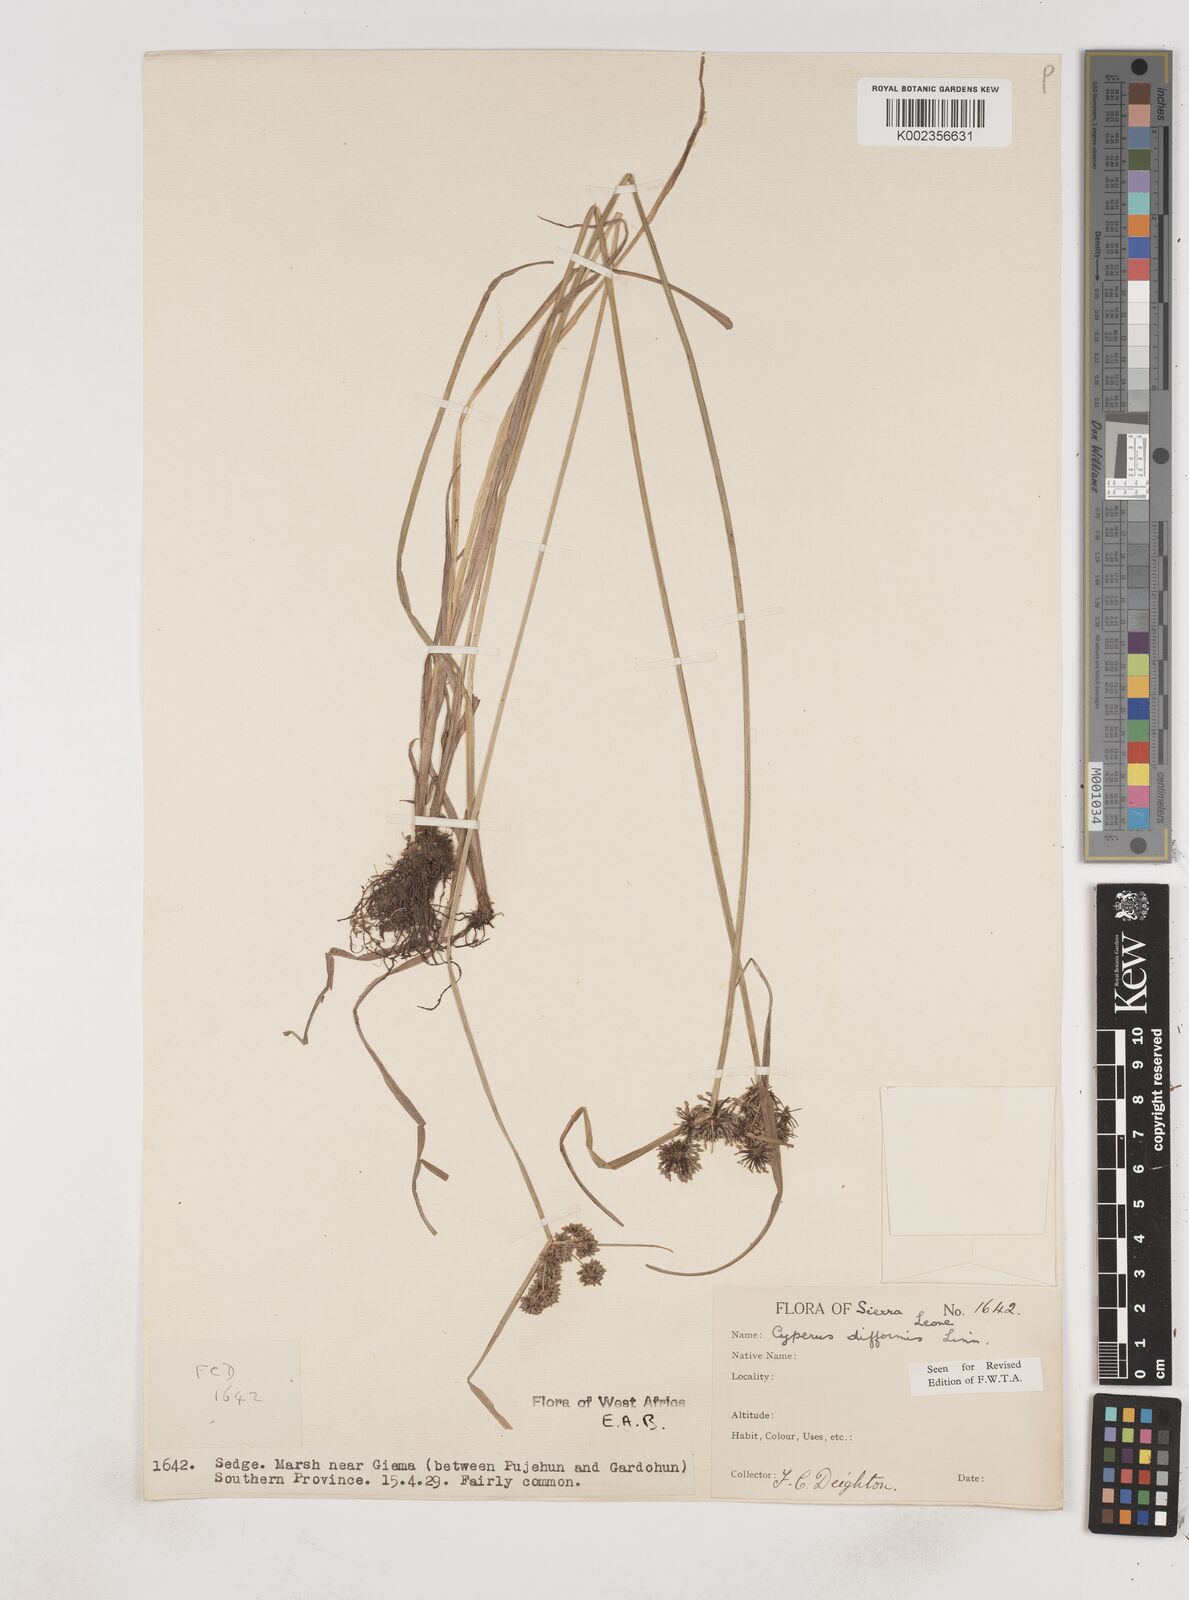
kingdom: Plantae
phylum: Tracheophyta
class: Liliopsida
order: Poales
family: Cyperaceae
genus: Cyperus
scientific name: Cyperus difformis
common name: Variable flatsedge
